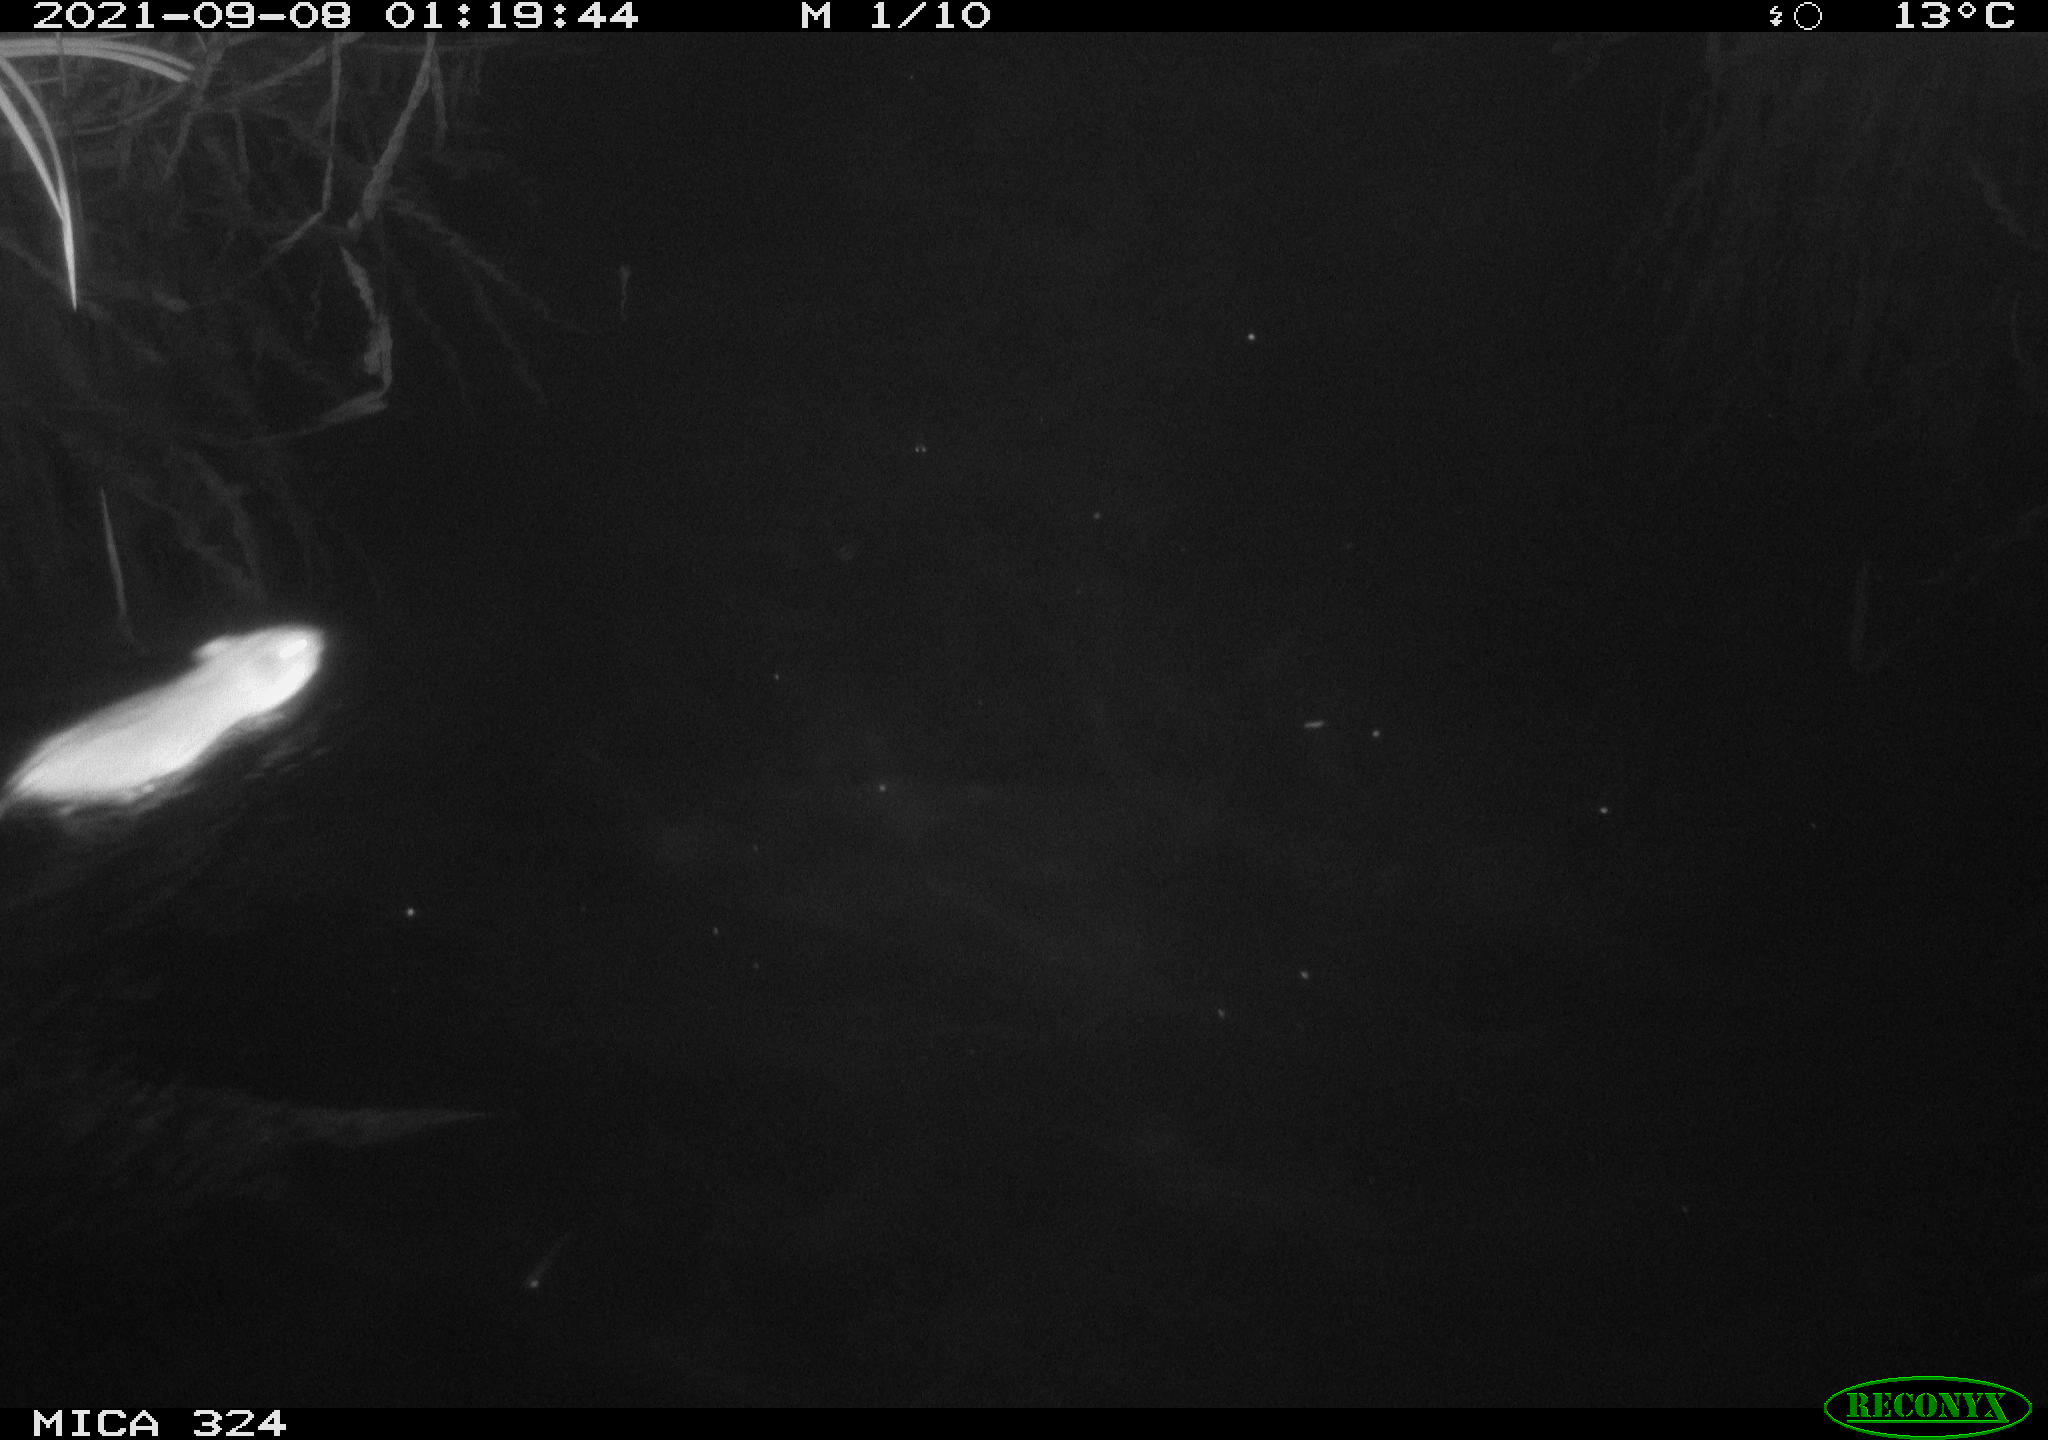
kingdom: Animalia
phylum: Chordata
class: Mammalia
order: Rodentia
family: Cricetidae
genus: Ondatra
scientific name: Ondatra zibethicus
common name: Muskrat
